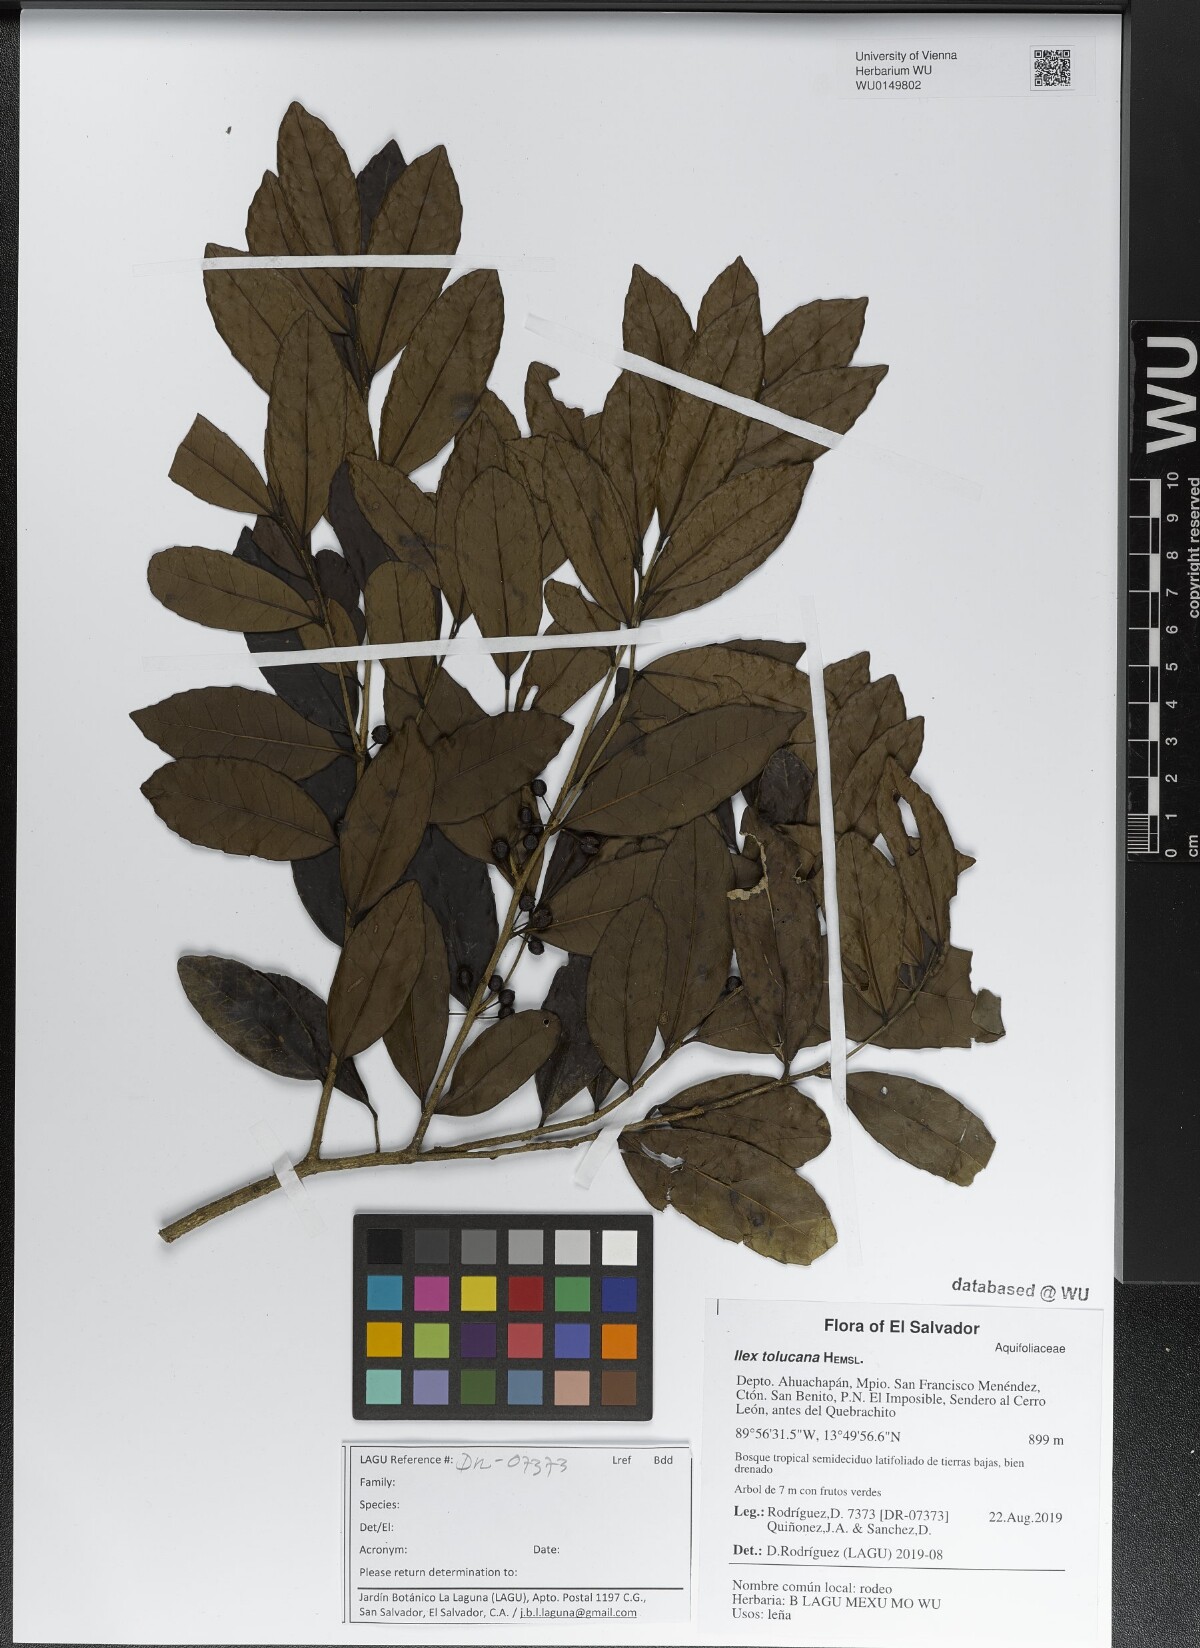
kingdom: Plantae
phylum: Tracheophyta
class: Magnoliopsida
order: Aquifoliales
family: Aquifoliaceae
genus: Ilex
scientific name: Ilex discolor
